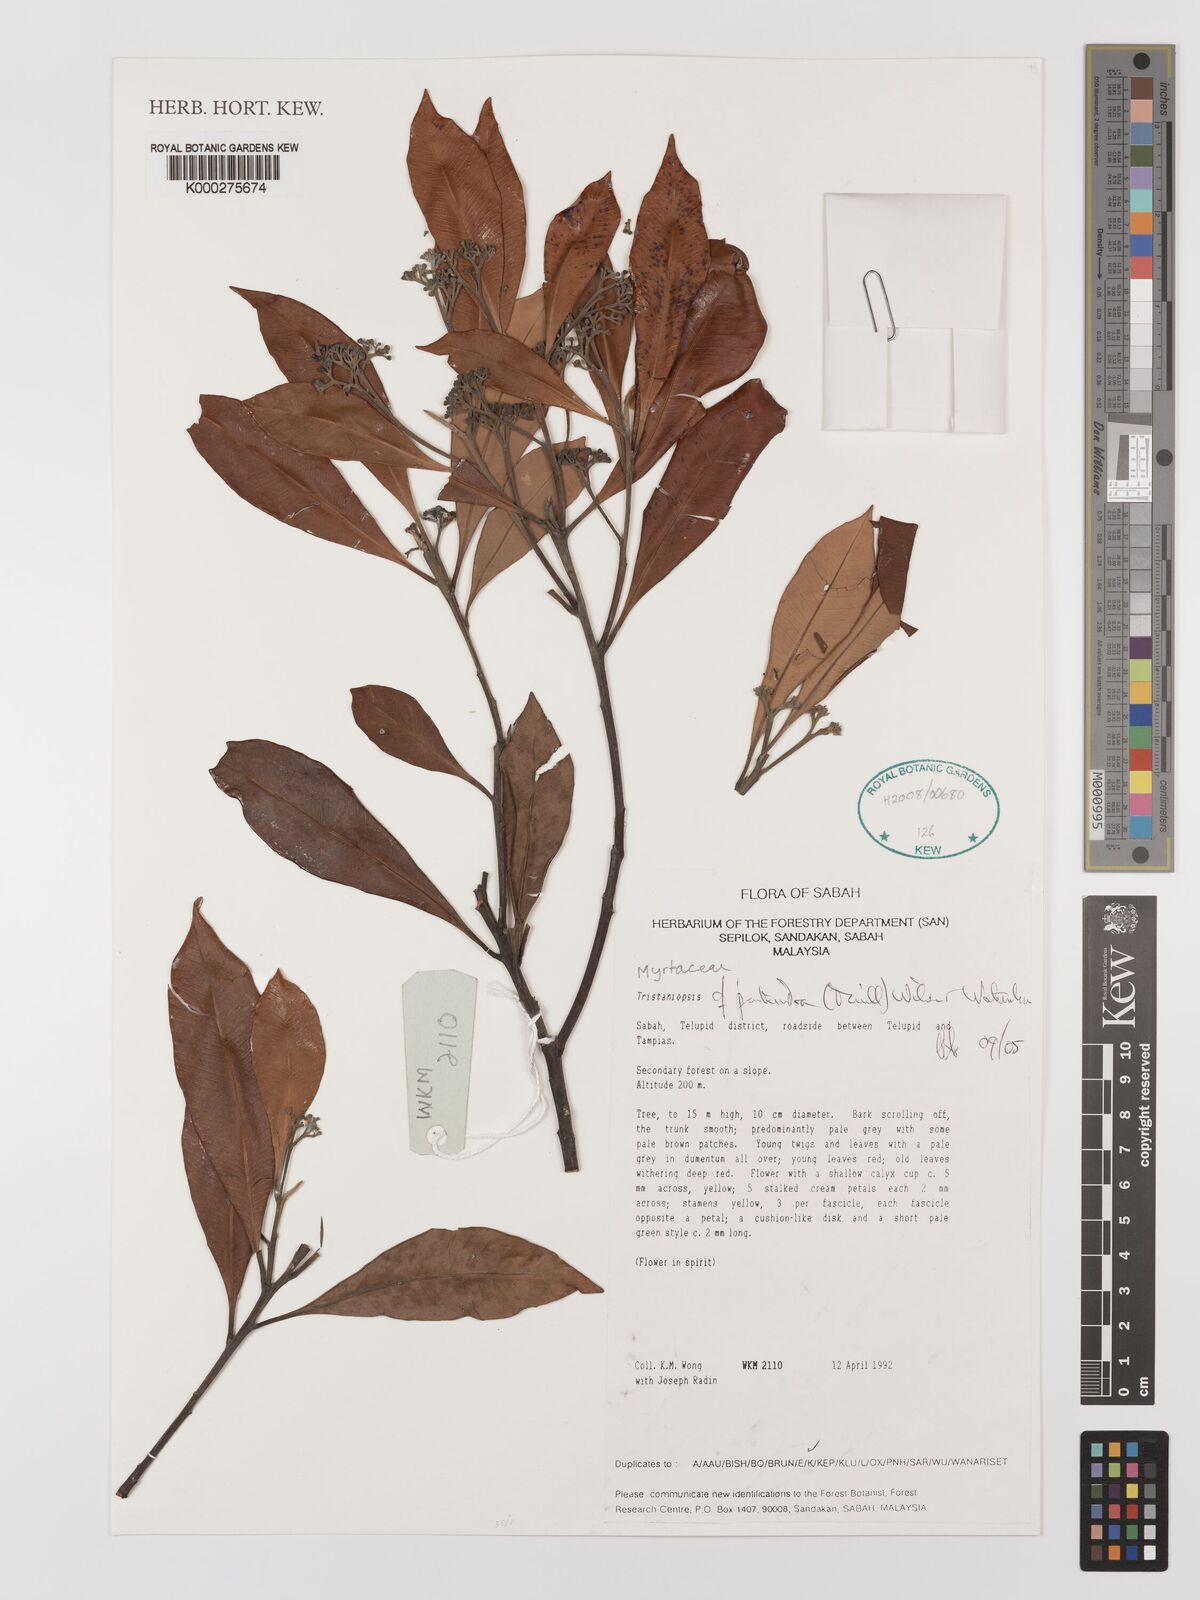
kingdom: Plantae
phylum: Tracheophyta
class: Magnoliopsida
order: Myrtales
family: Myrtaceae
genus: Tristaniopsis
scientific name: Tristaniopsis pentandra
